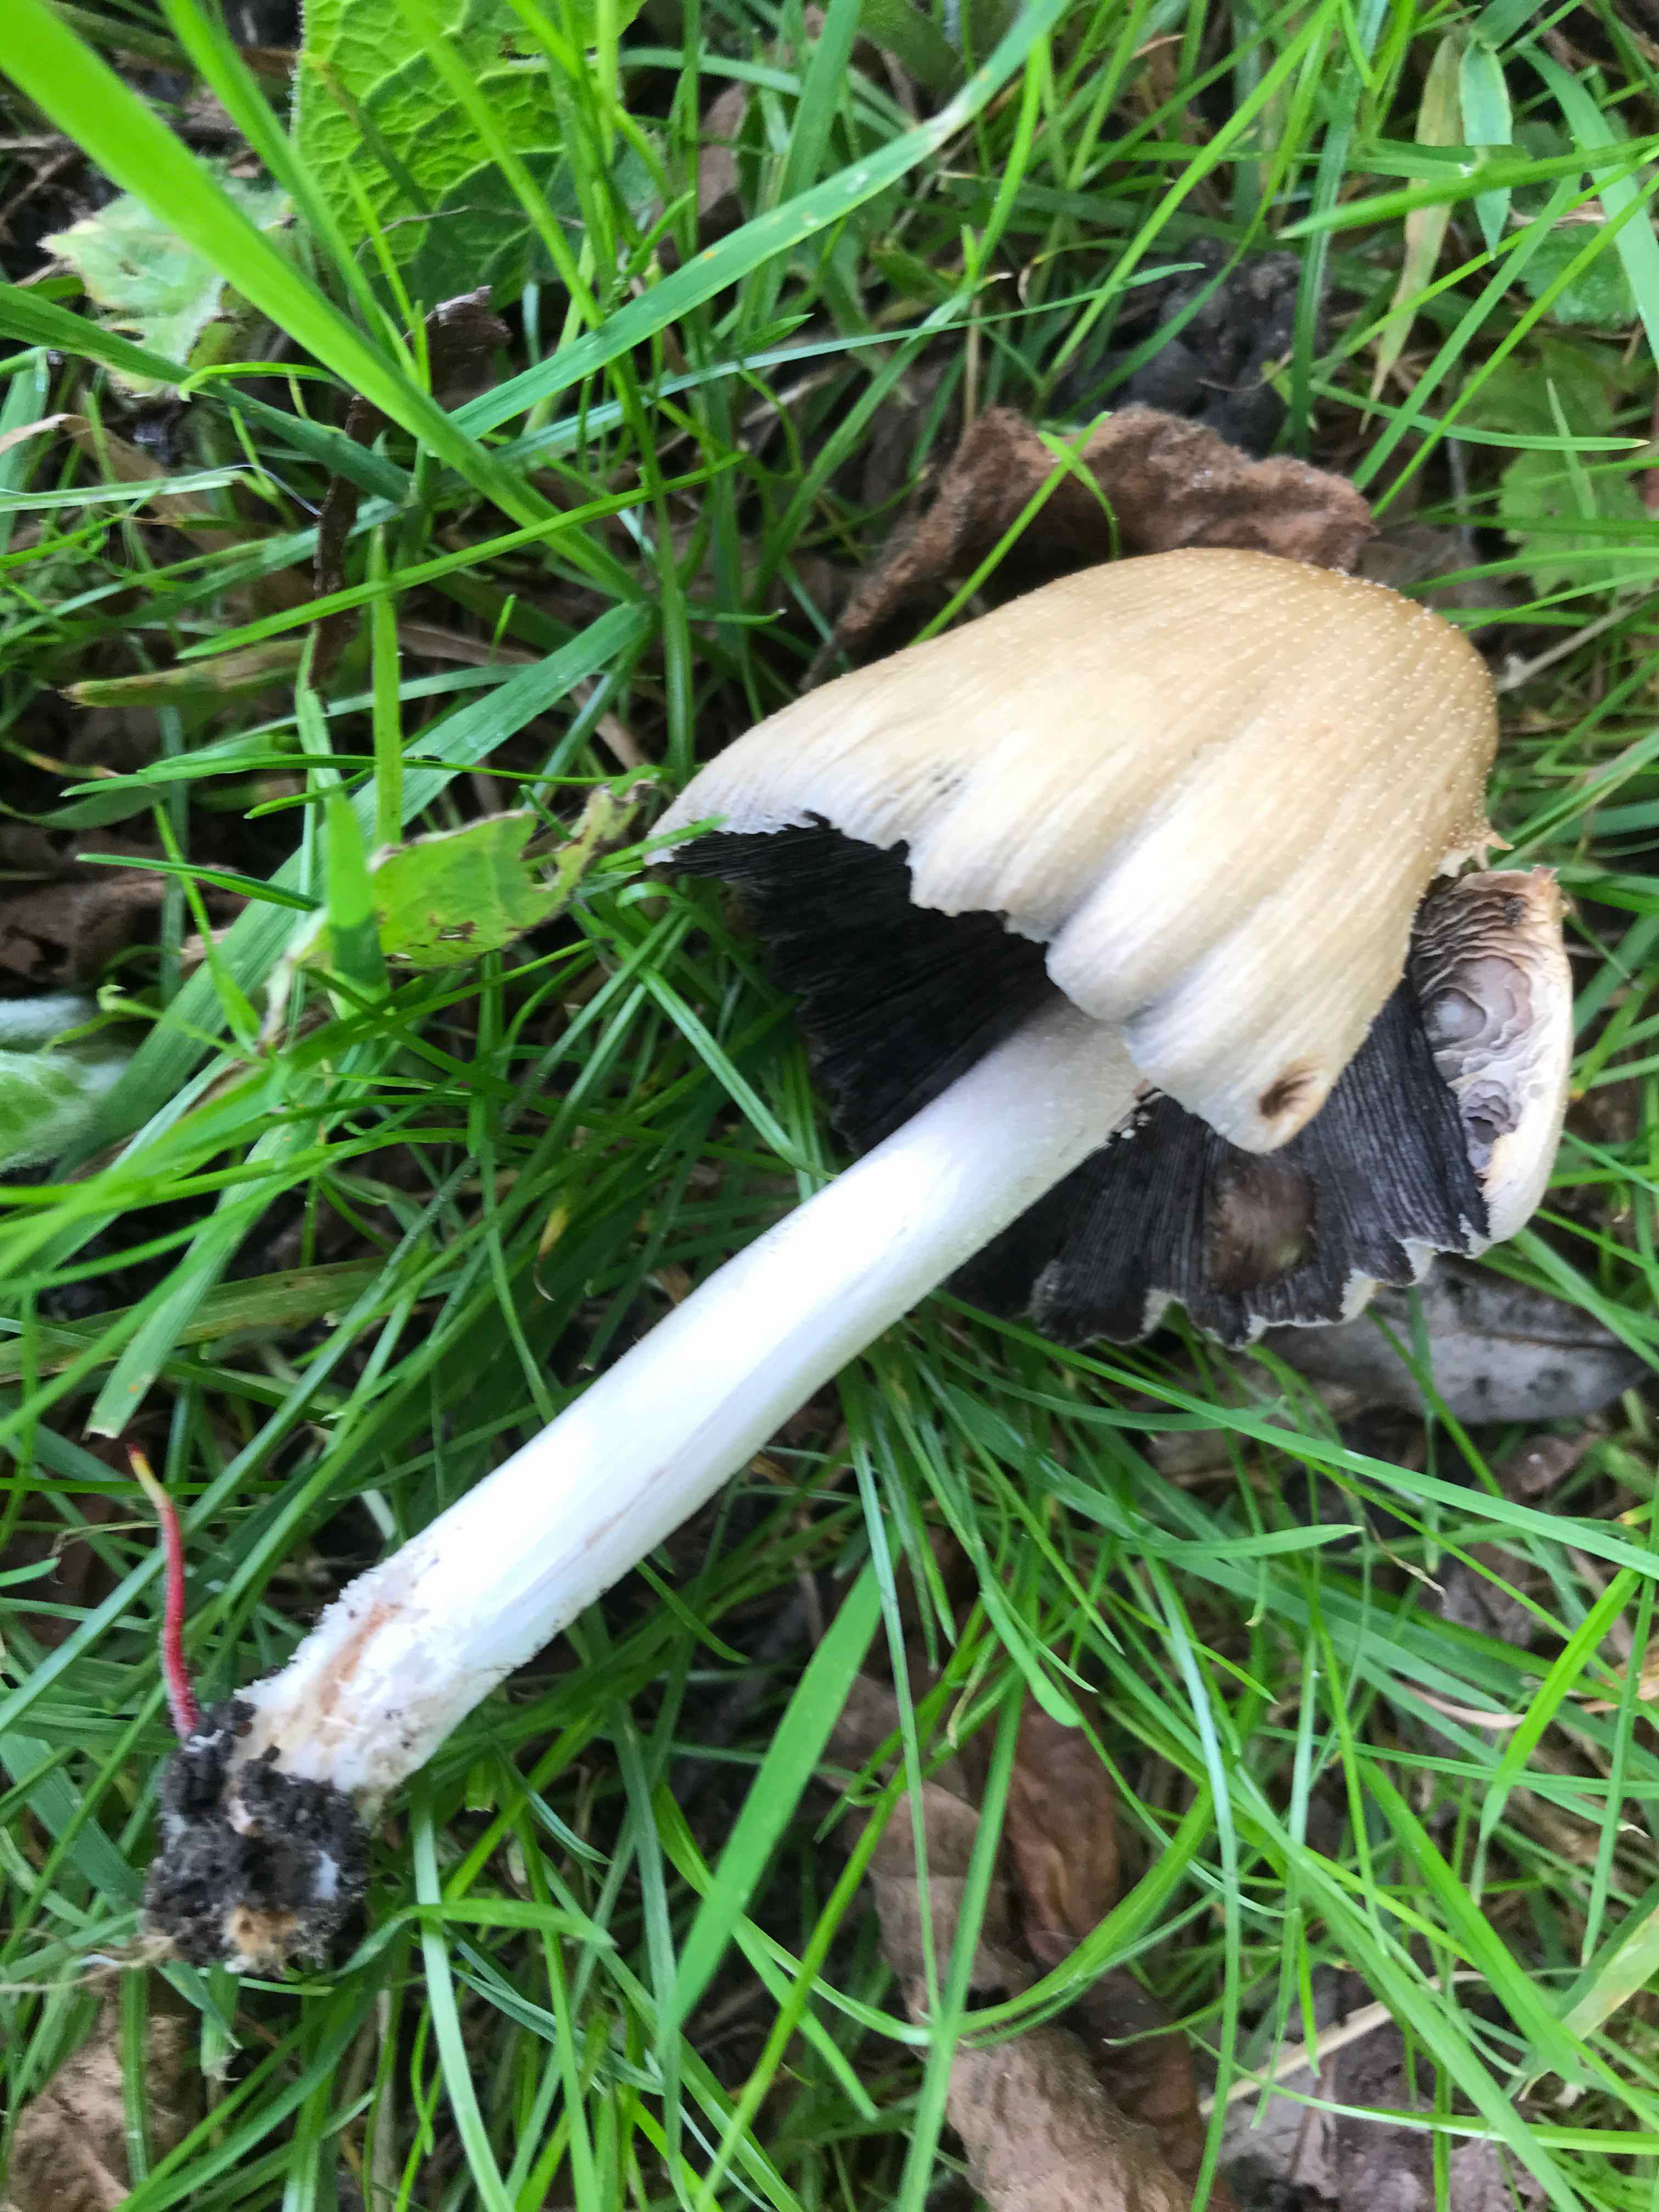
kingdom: Fungi
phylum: Basidiomycota
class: Agaricomycetes
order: Agaricales
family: Psathyrellaceae
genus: Coprinellus
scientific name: Coprinellus
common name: blækhat
